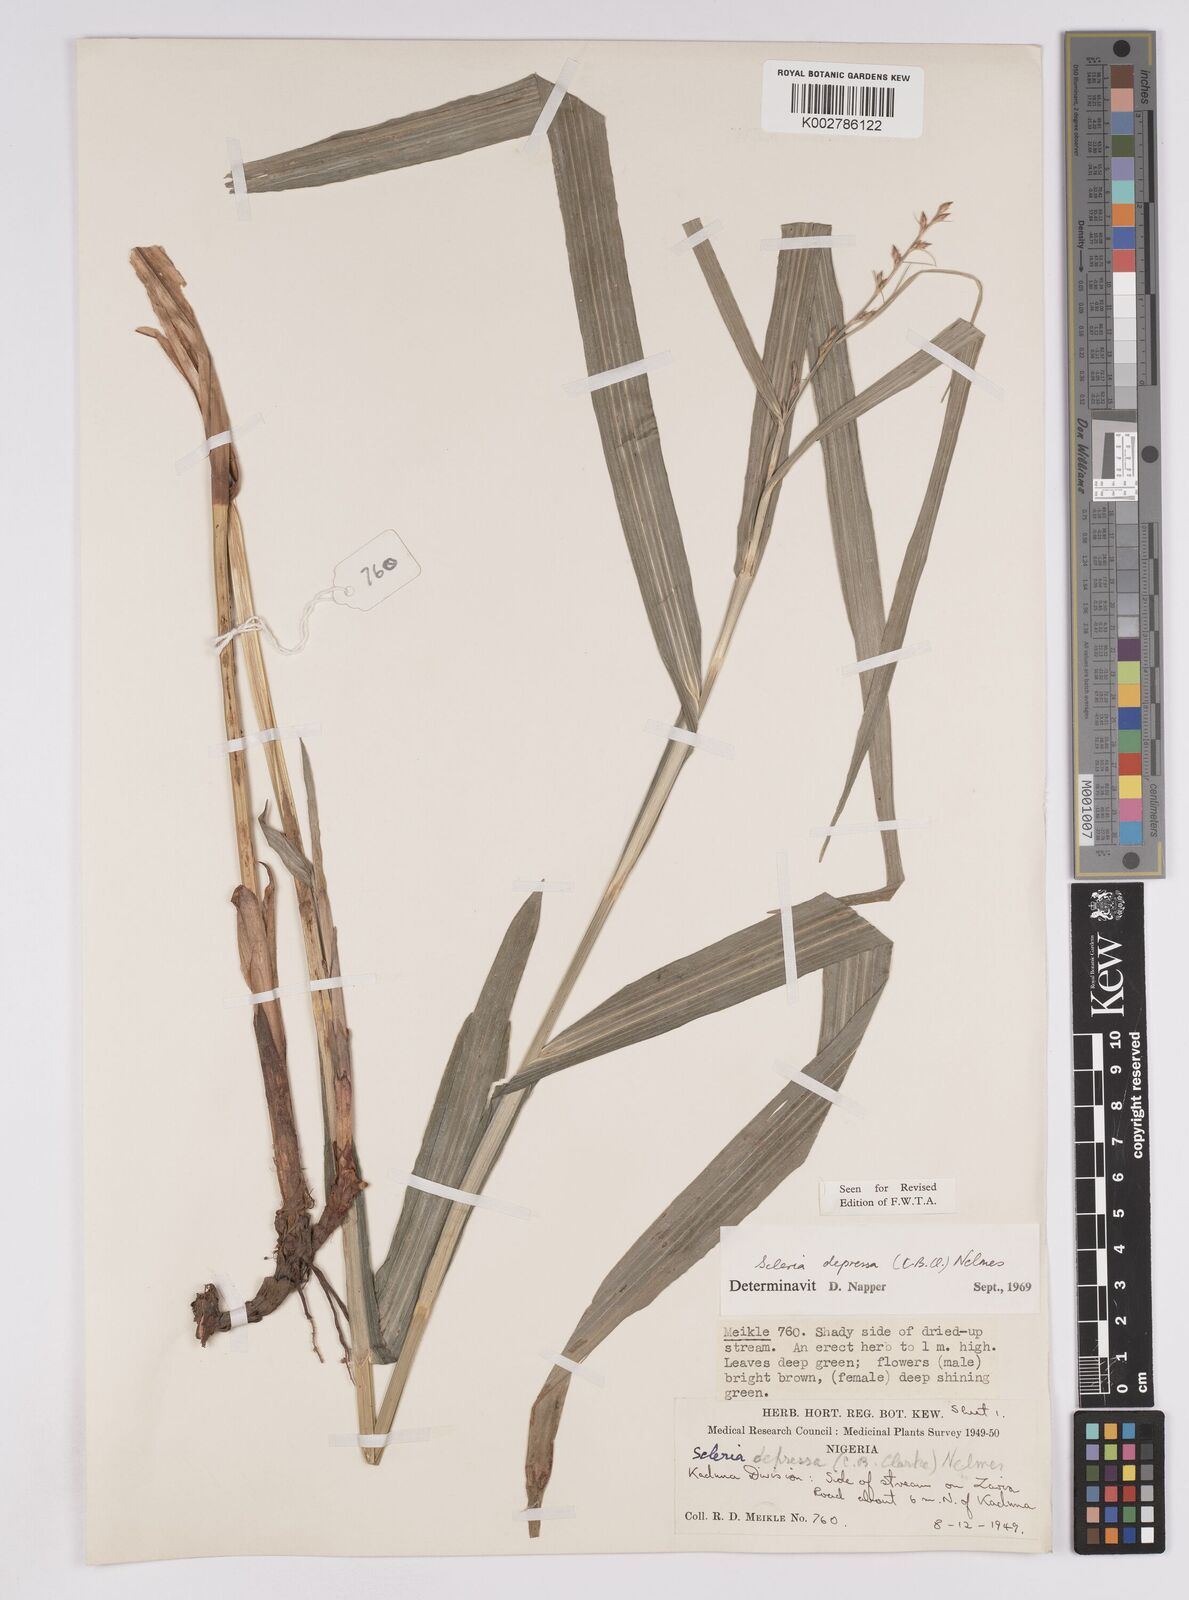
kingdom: Plantae
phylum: Tracheophyta
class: Liliopsida
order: Poales
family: Cyperaceae
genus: Scleria
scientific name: Scleria depressa
